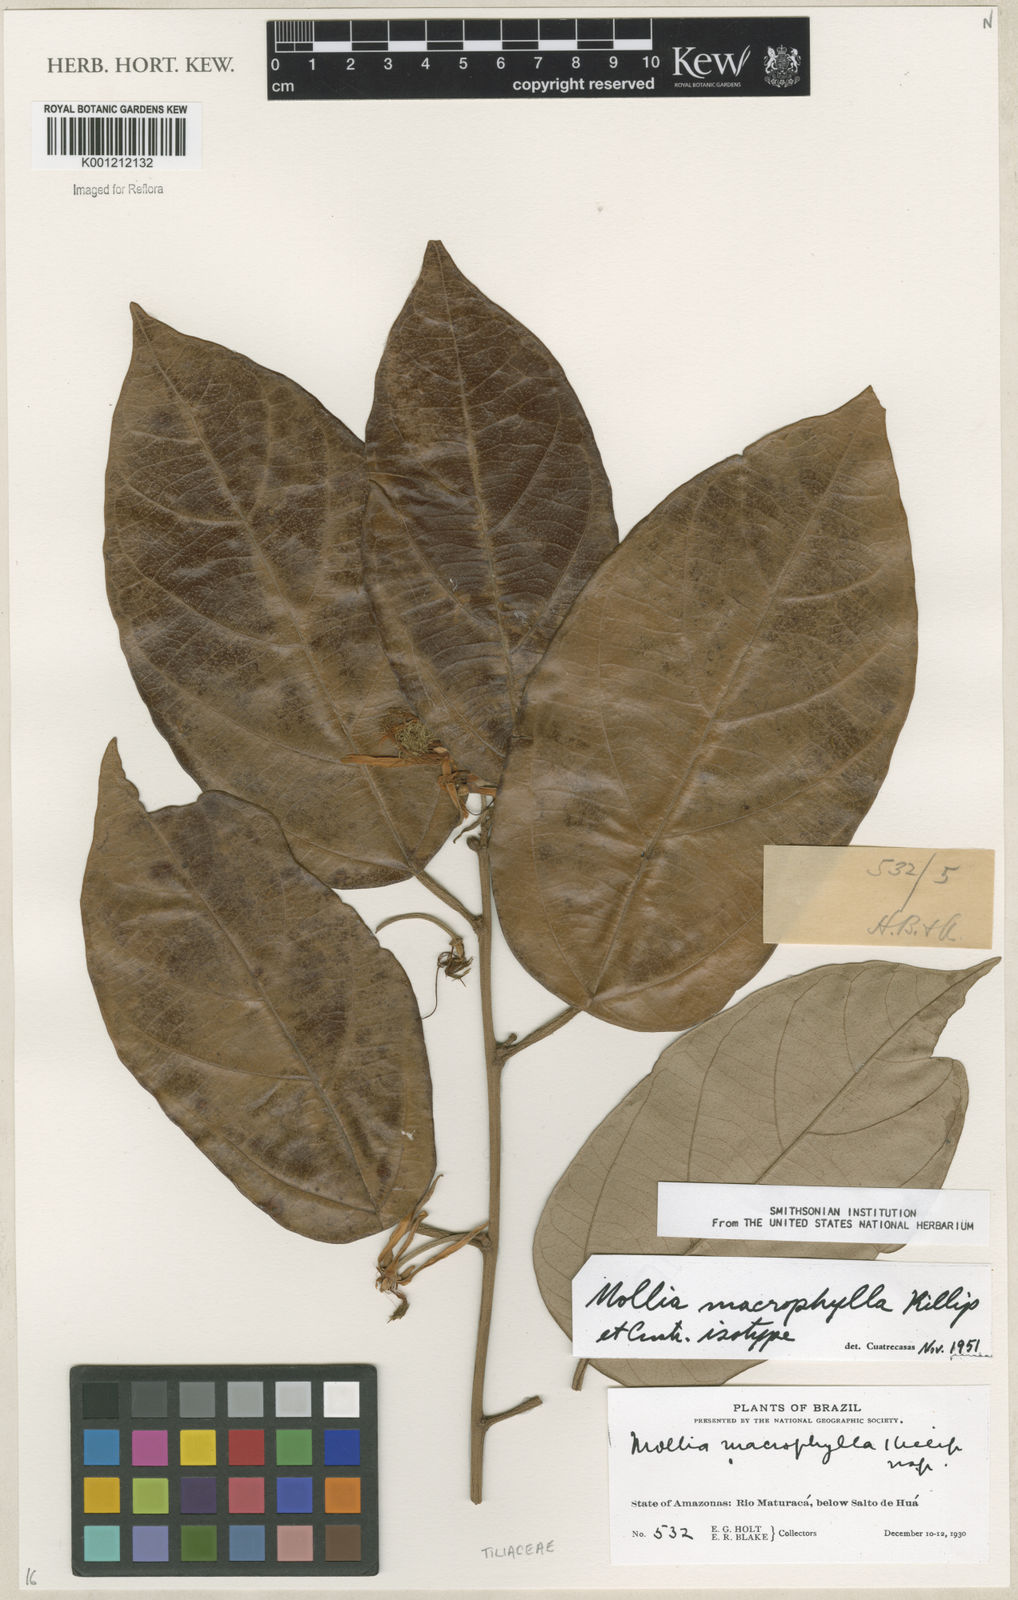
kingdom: Plantae
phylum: Tracheophyta
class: Magnoliopsida
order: Malvales
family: Malvaceae
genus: Mollia
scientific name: Mollia macrophylla
